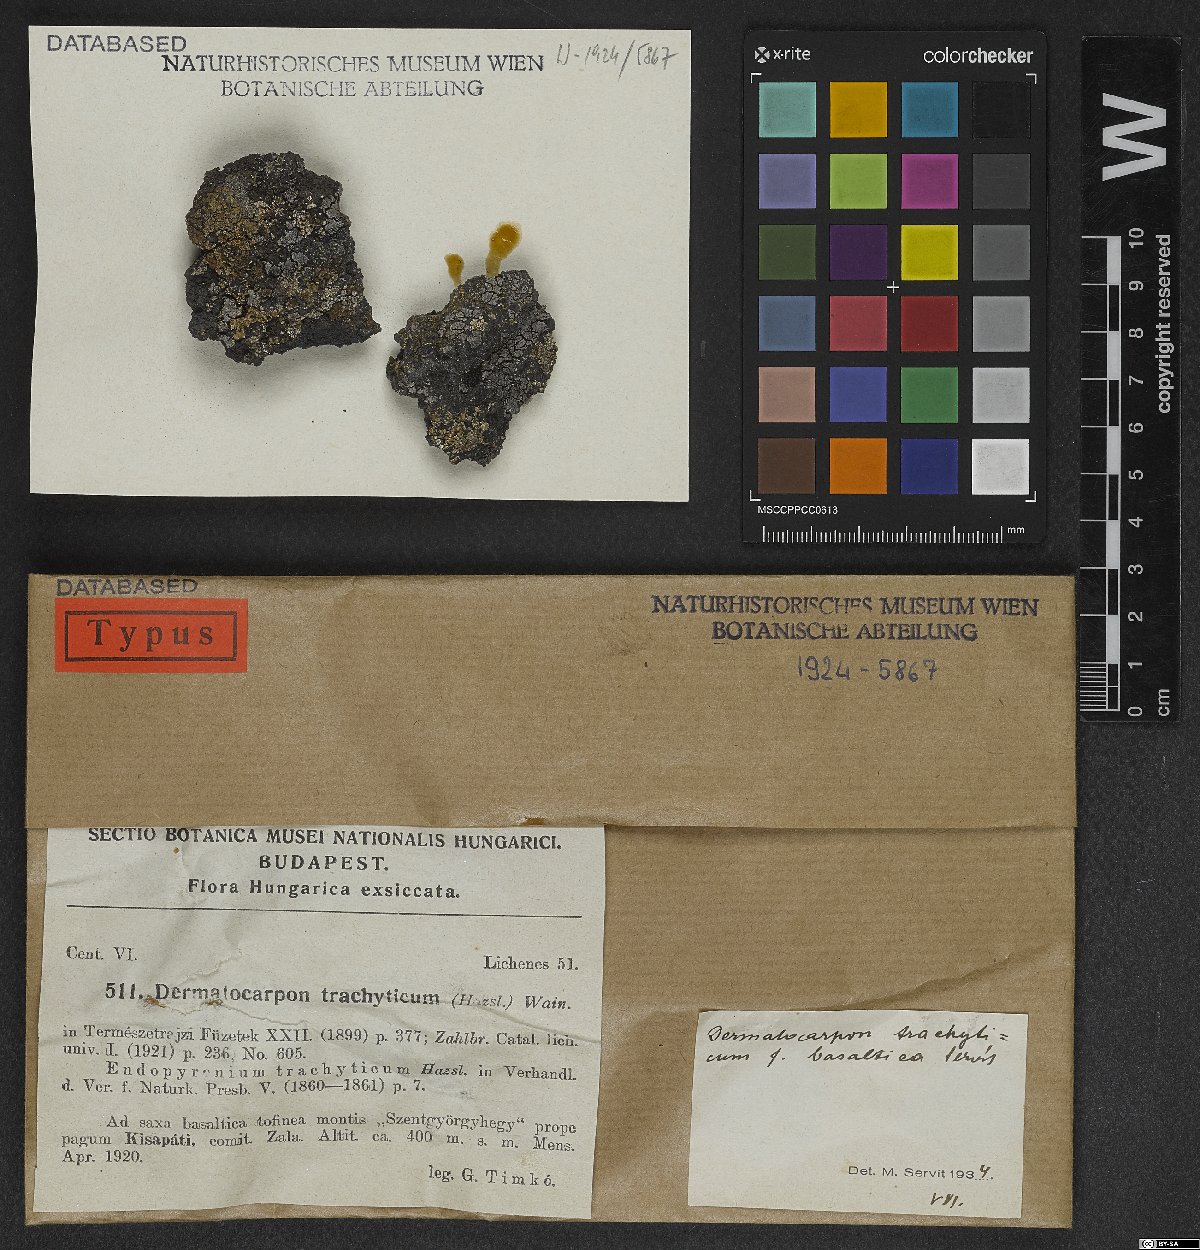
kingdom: Fungi
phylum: Ascomycota
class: Eurotiomycetes
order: Verrucariales
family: Verrucariaceae
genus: Placopyrenium
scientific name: Placopyrenium trachyticum
